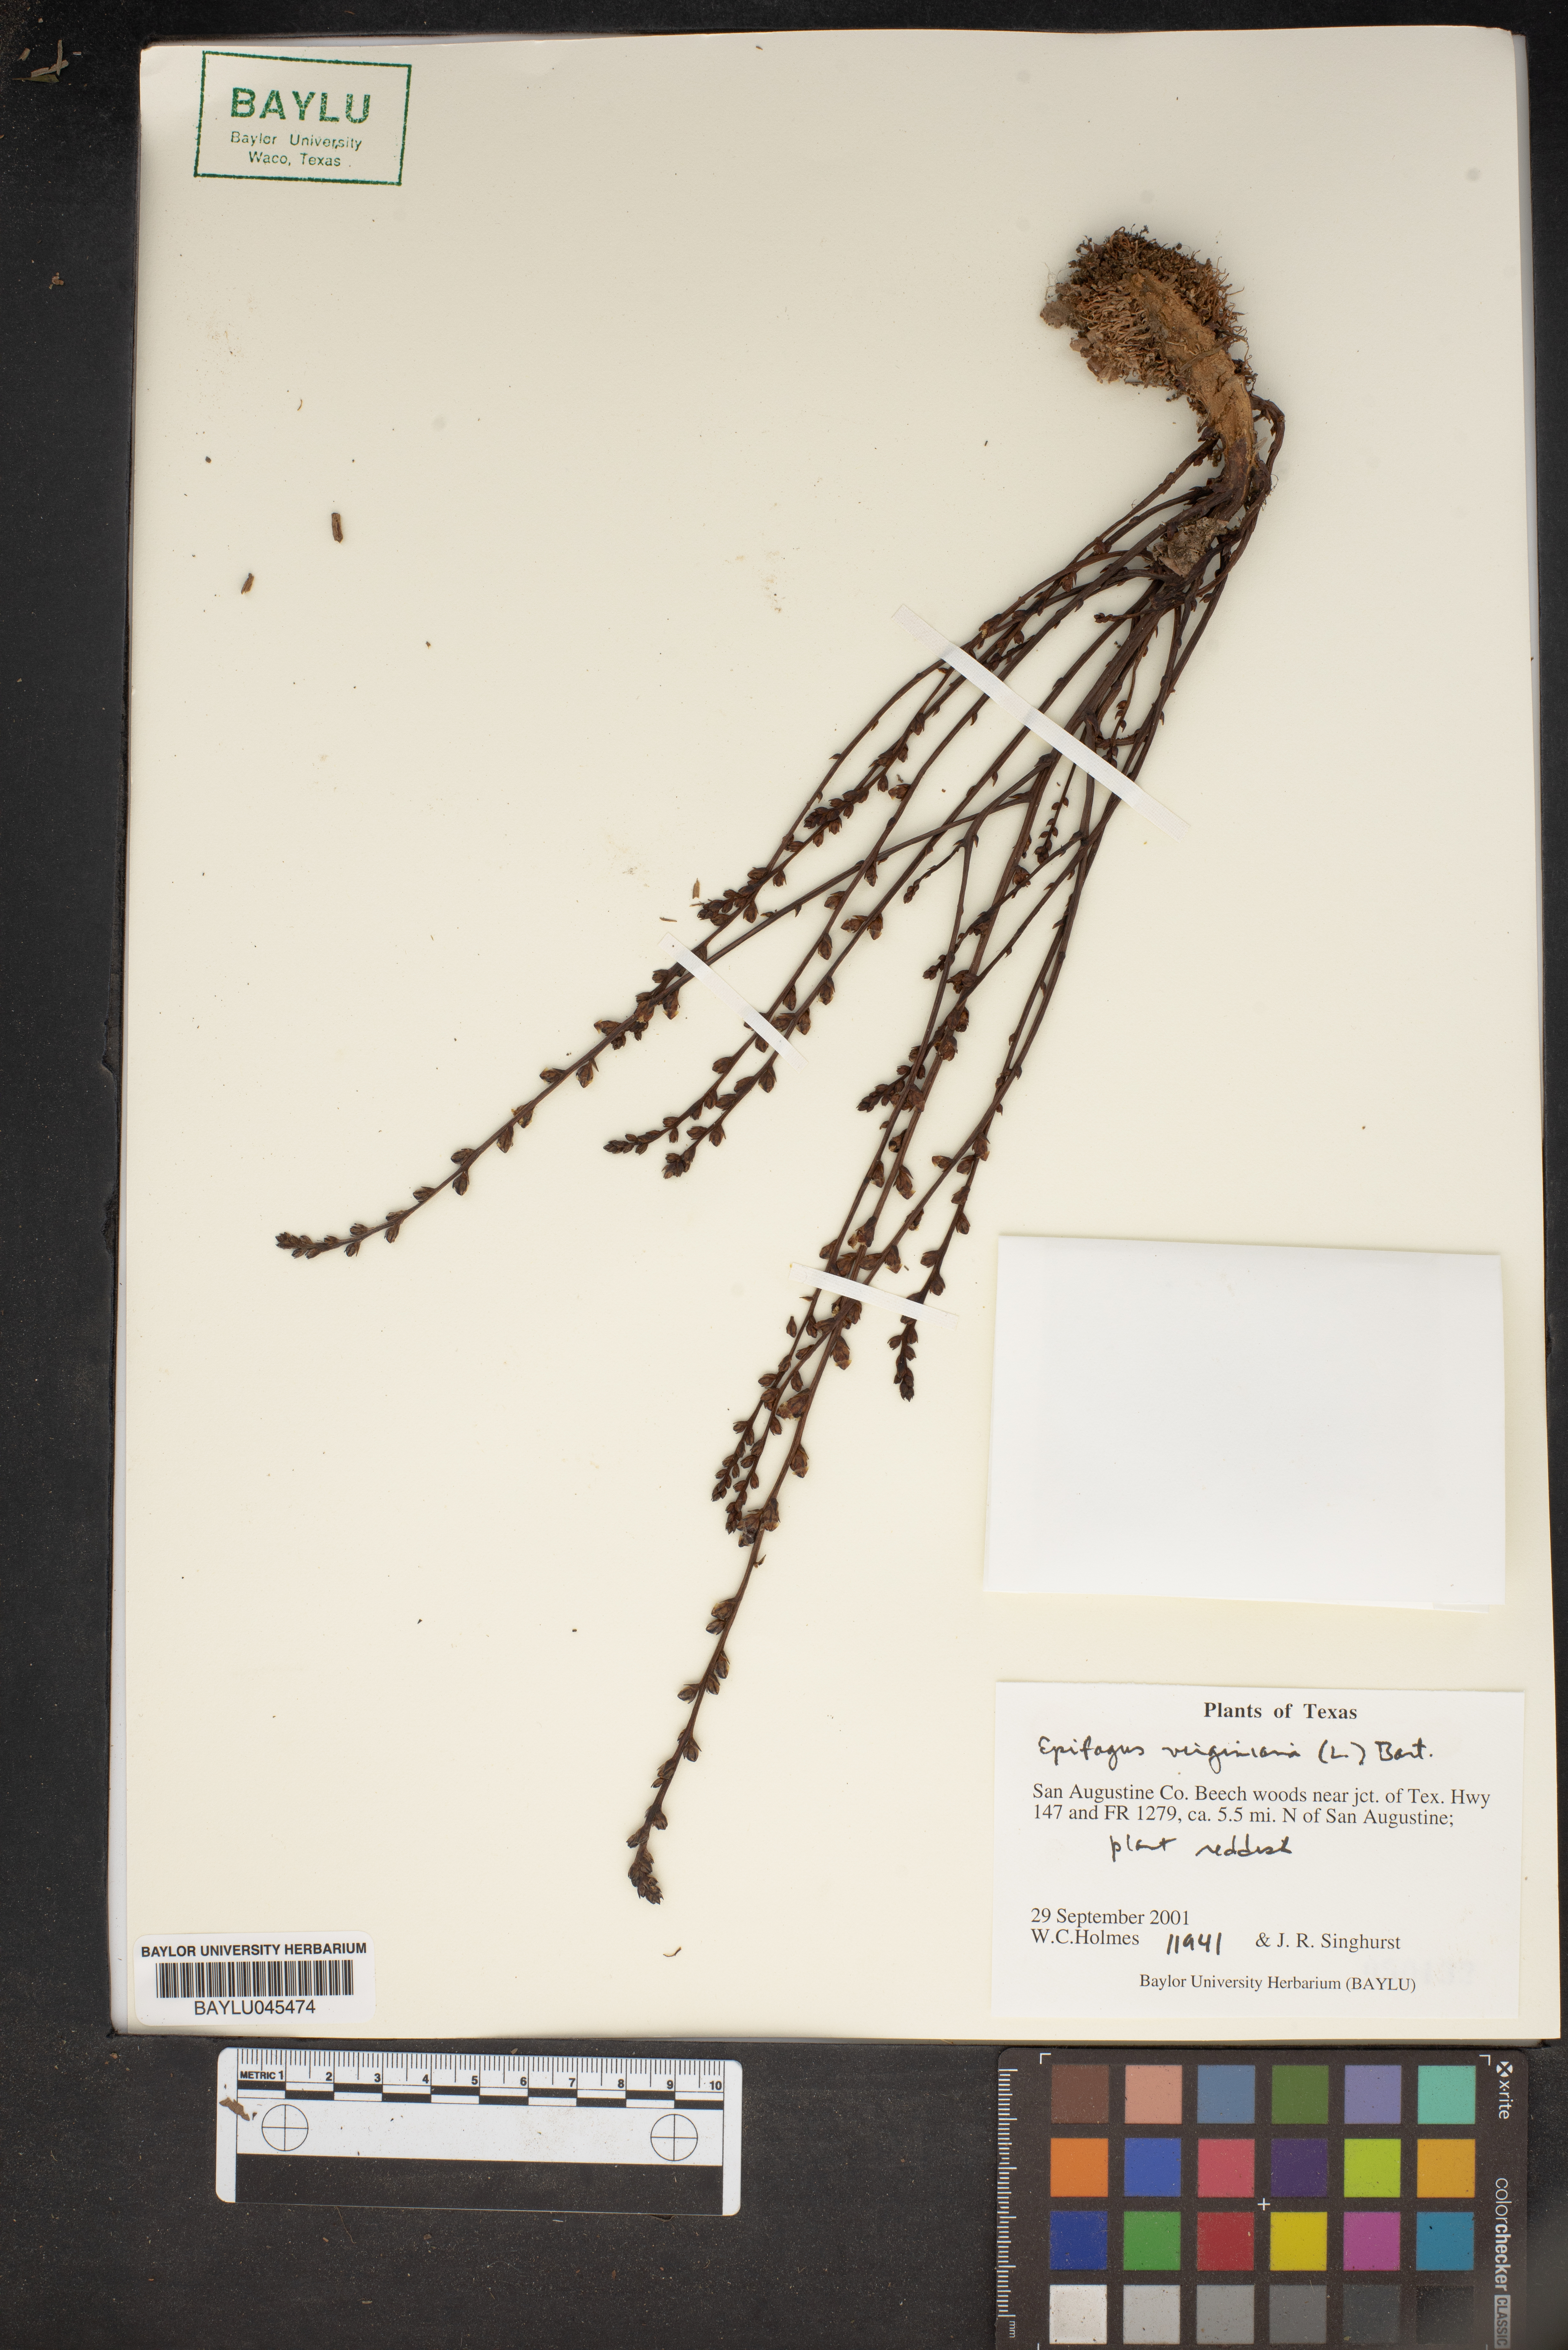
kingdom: Plantae
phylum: Tracheophyta
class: Magnoliopsida
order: Lamiales
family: Orobanchaceae
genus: Epifagus
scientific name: Epifagus virginiana
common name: Beechdrops
